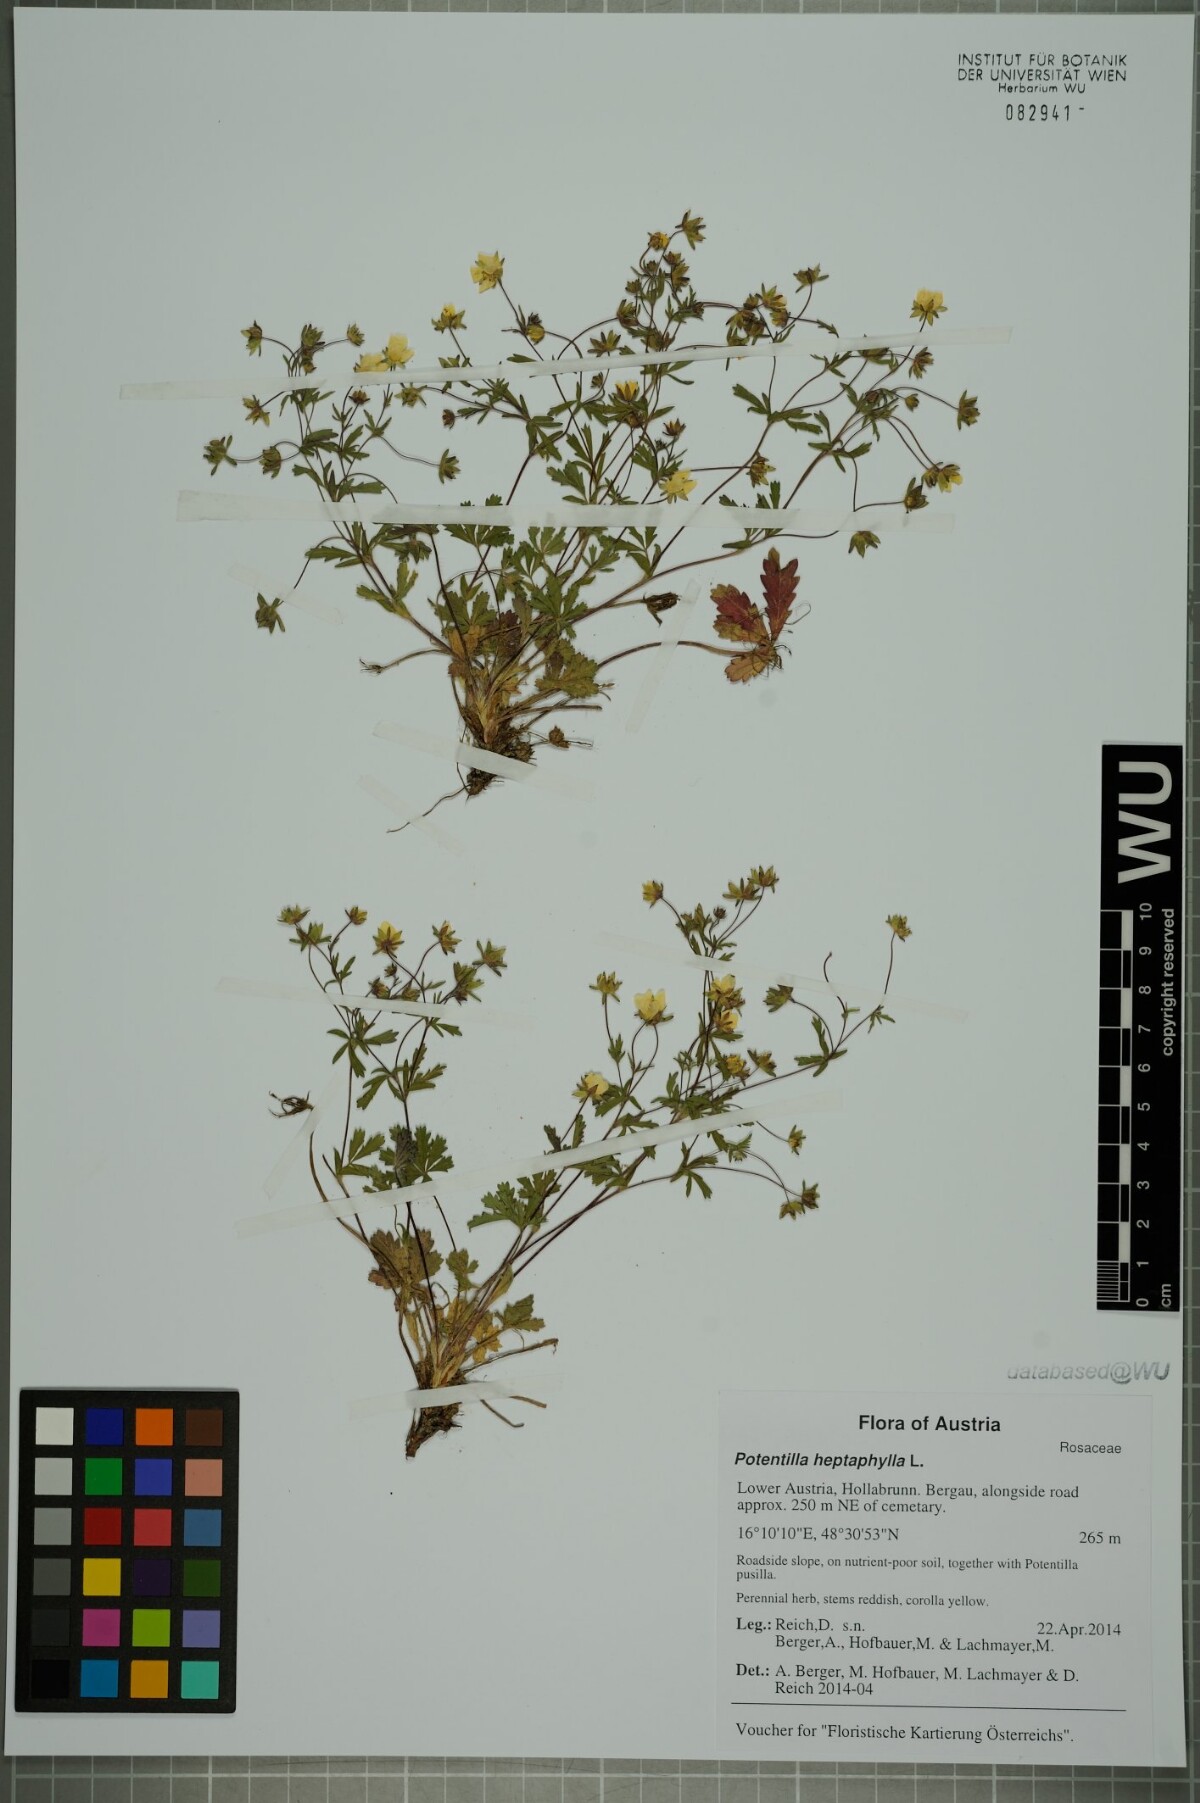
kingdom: Plantae
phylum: Tracheophyta
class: Magnoliopsida
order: Rosales
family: Rosaceae
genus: Potentilla
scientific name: Potentilla heptaphylla
